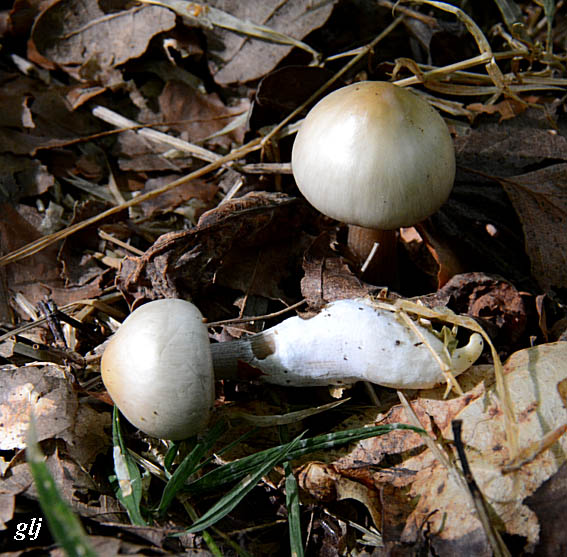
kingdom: Fungi
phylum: Basidiomycota
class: Agaricomycetes
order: Agaricales
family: Omphalotaceae
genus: Rhodocollybia
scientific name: Rhodocollybia asema
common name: horngrå fladhat
